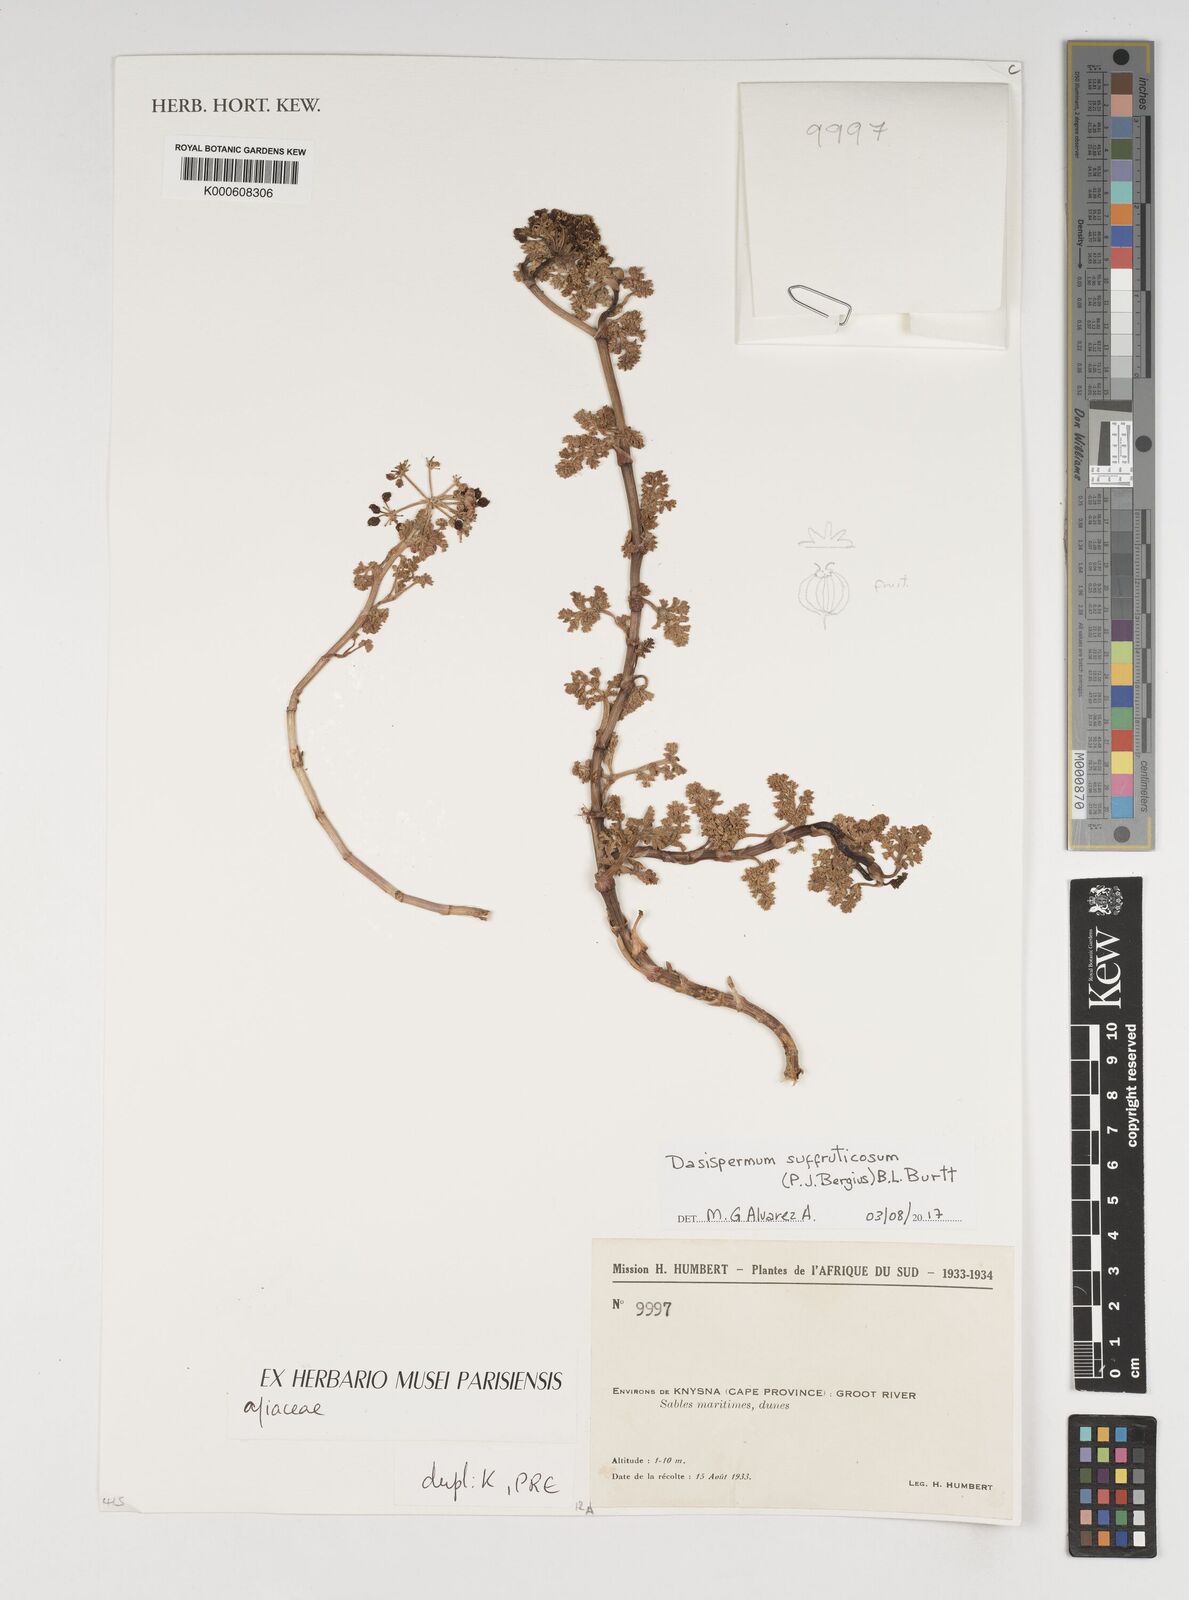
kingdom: Plantae
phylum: Tracheophyta
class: Magnoliopsida
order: Apiales
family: Apiaceae
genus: Dasispermum
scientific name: Dasispermum suffruticosum
